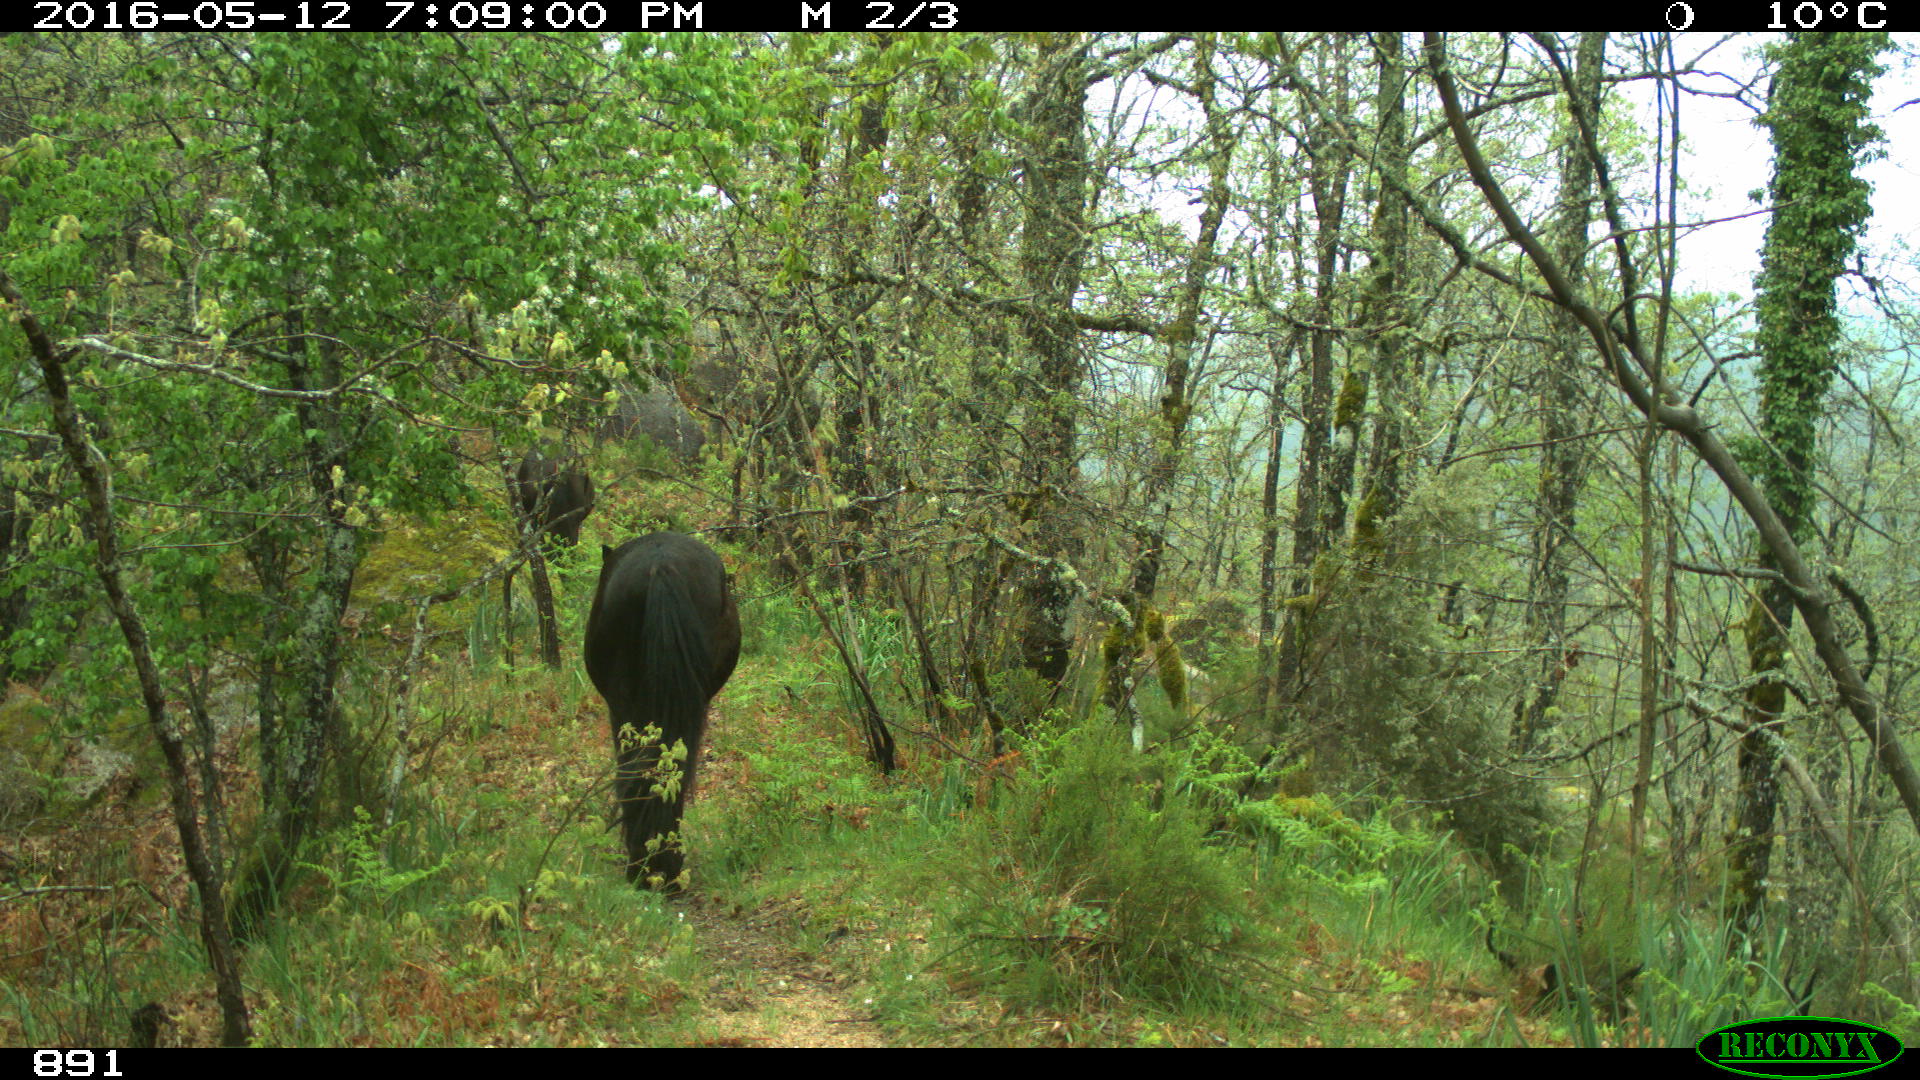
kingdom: Animalia
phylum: Chordata
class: Mammalia
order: Perissodactyla
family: Equidae
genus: Equus
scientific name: Equus caballus
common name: Horse
